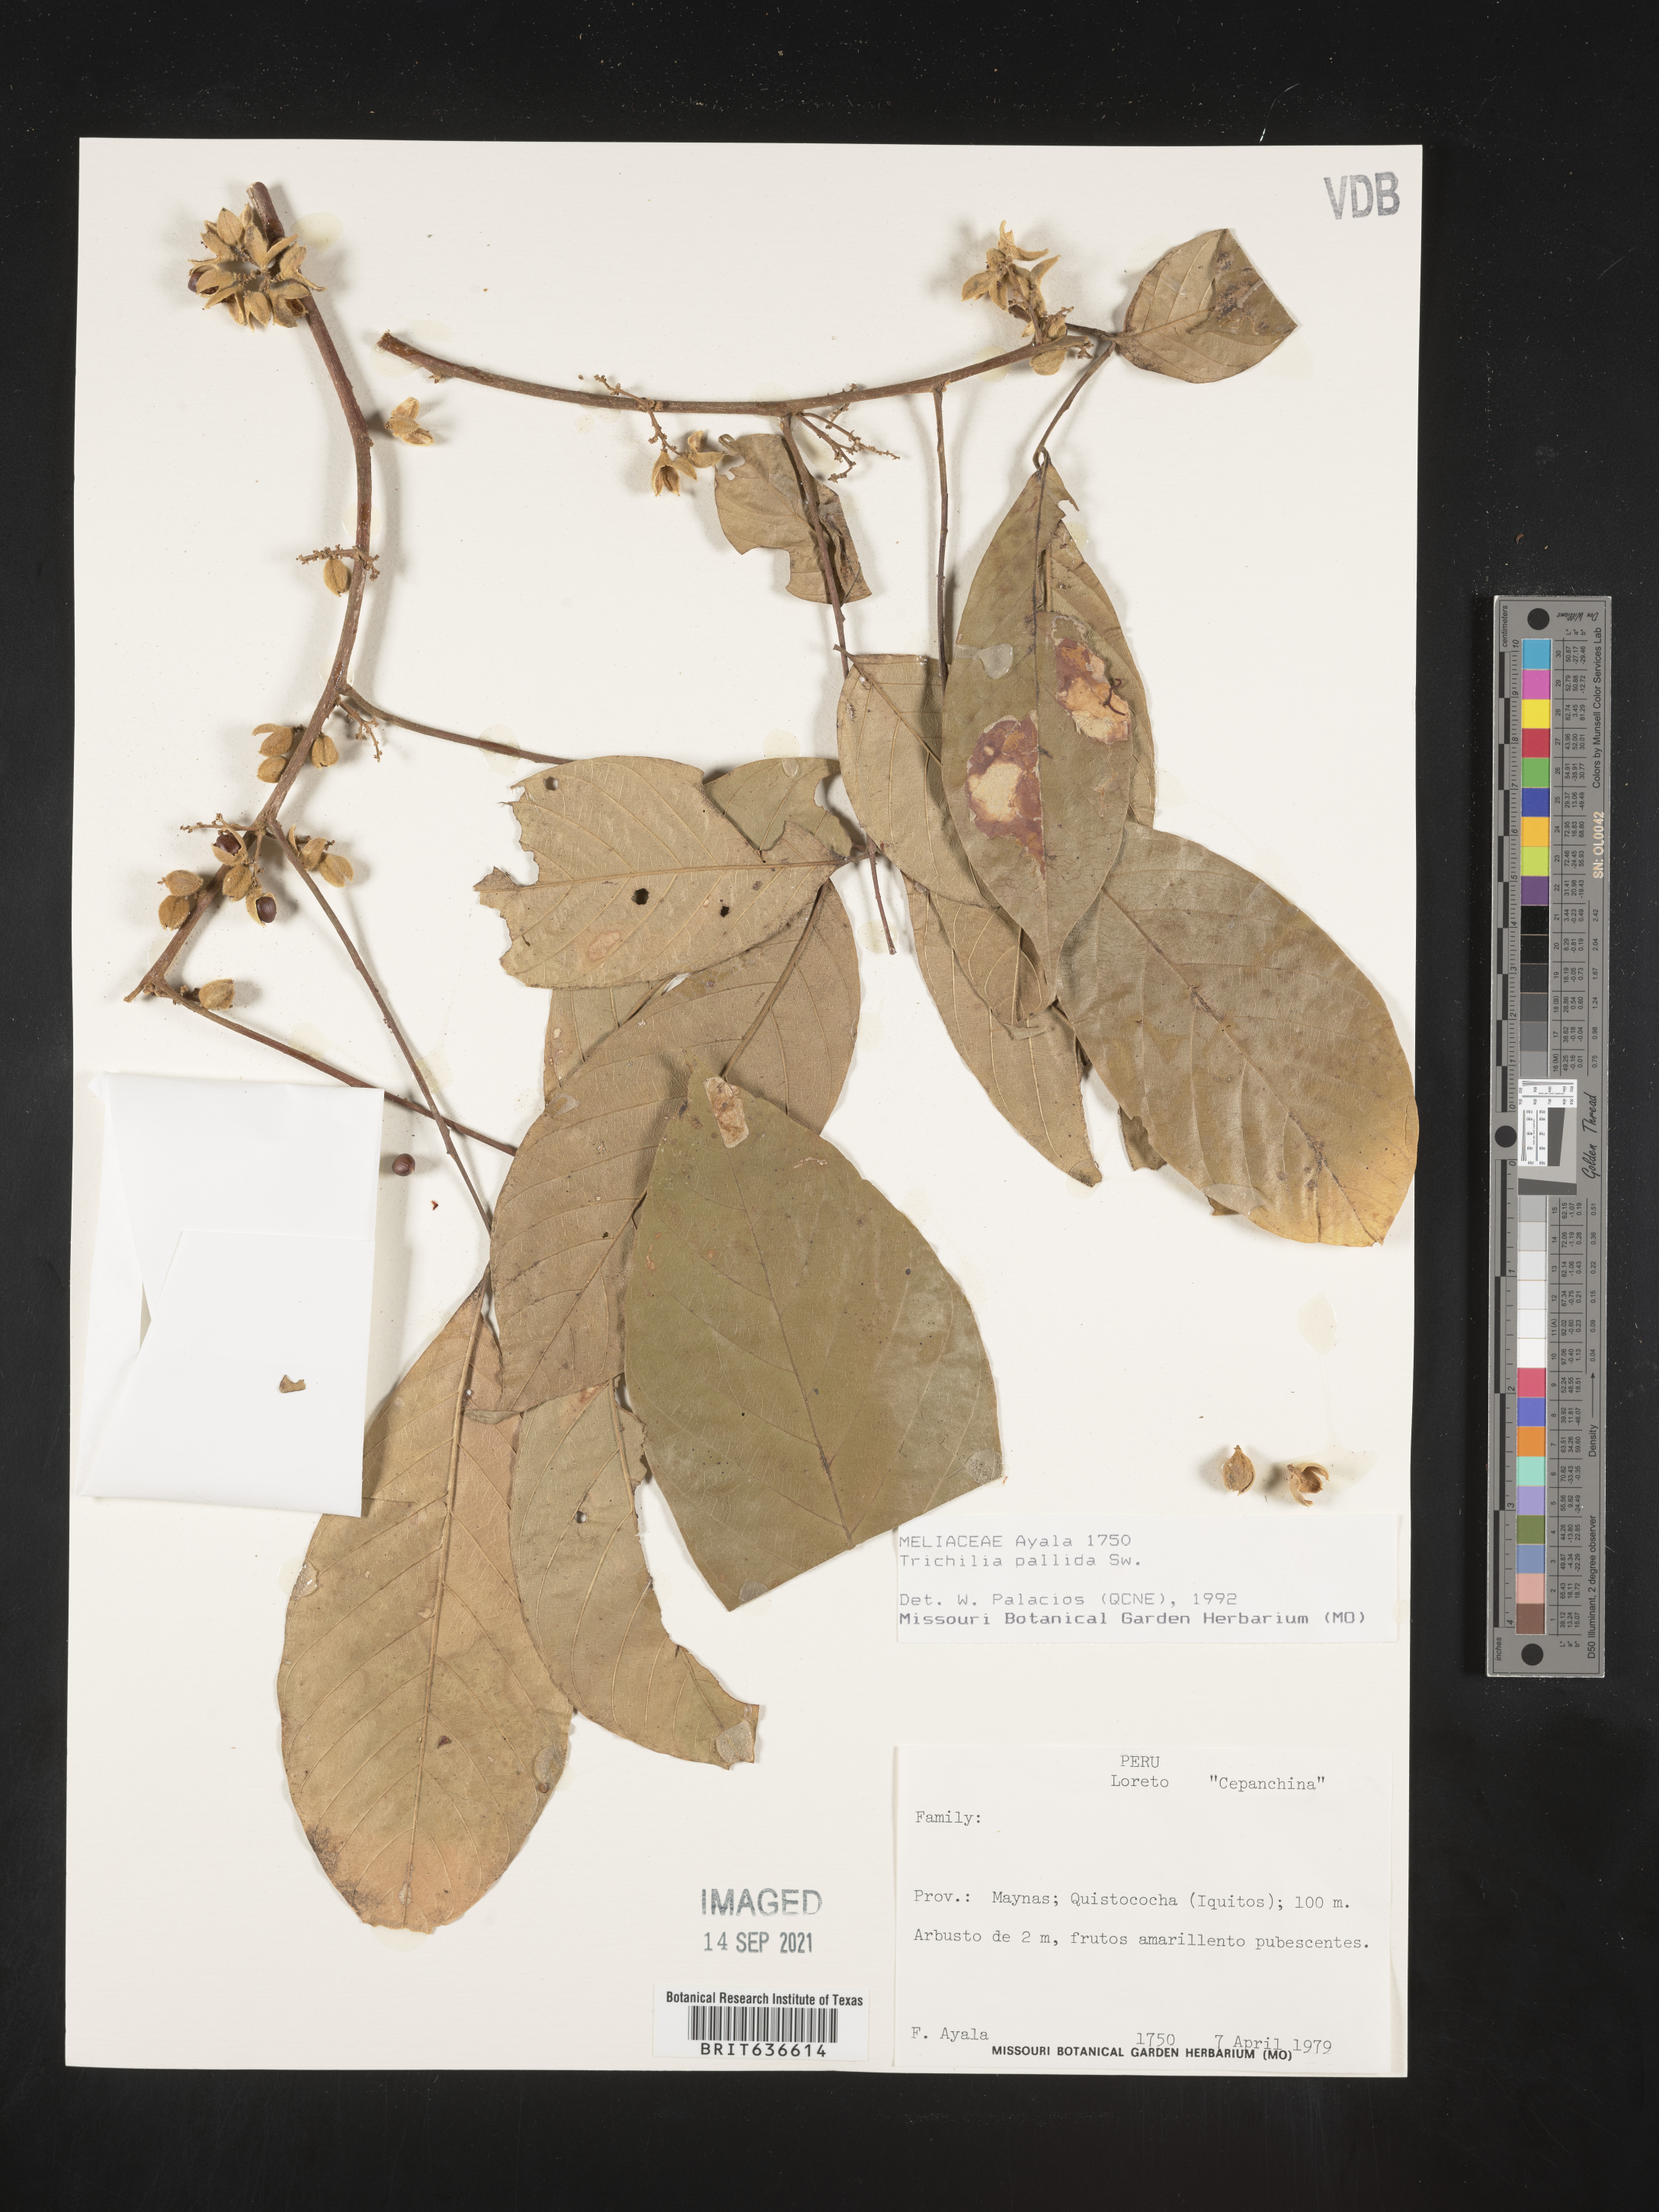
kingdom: Plantae
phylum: Tracheophyta
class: Magnoliopsida
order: Sapindales
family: Meliaceae
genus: Trichilia
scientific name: Trichilia
